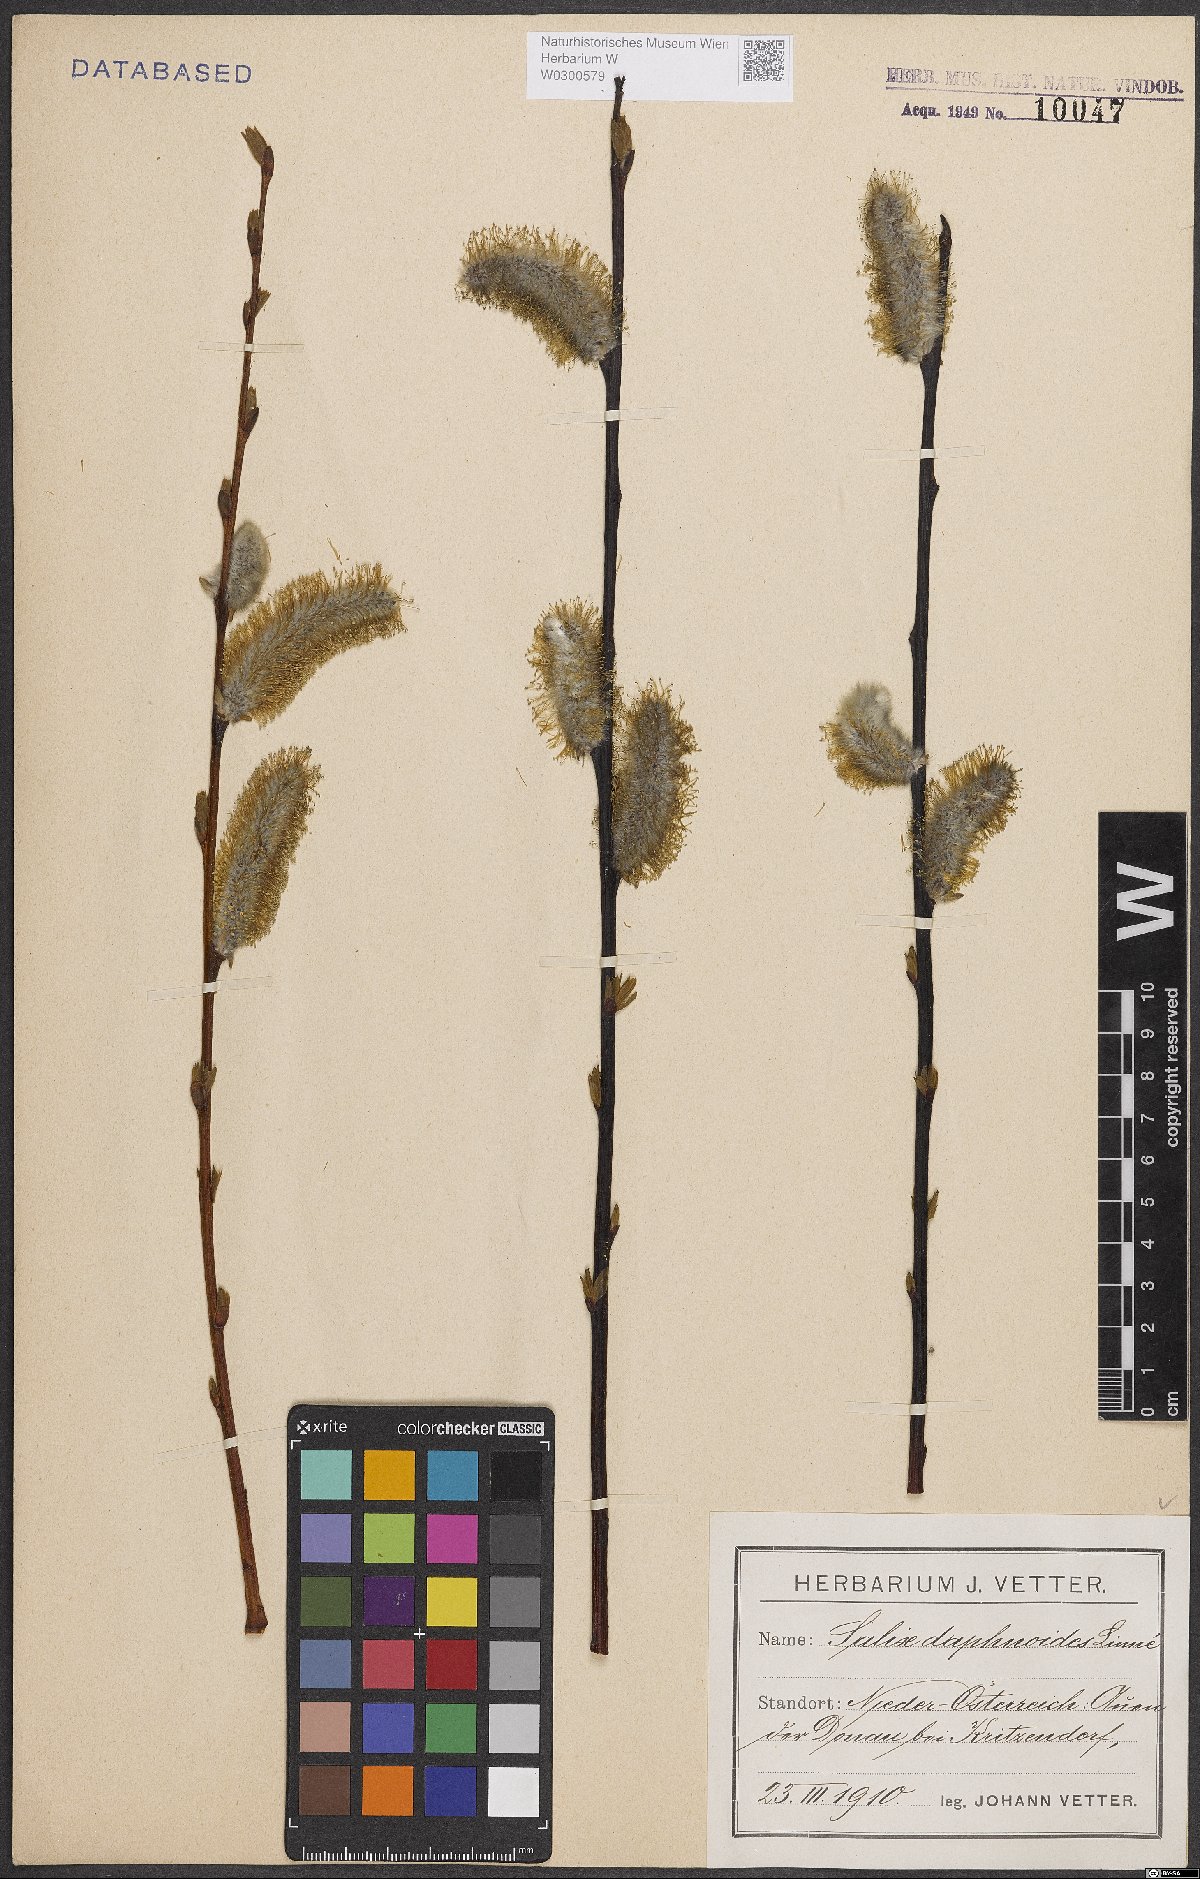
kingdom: Plantae
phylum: Tracheophyta
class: Magnoliopsida
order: Malpighiales
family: Salicaceae
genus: Salix
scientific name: Salix daphnoides
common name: European violet-willow
